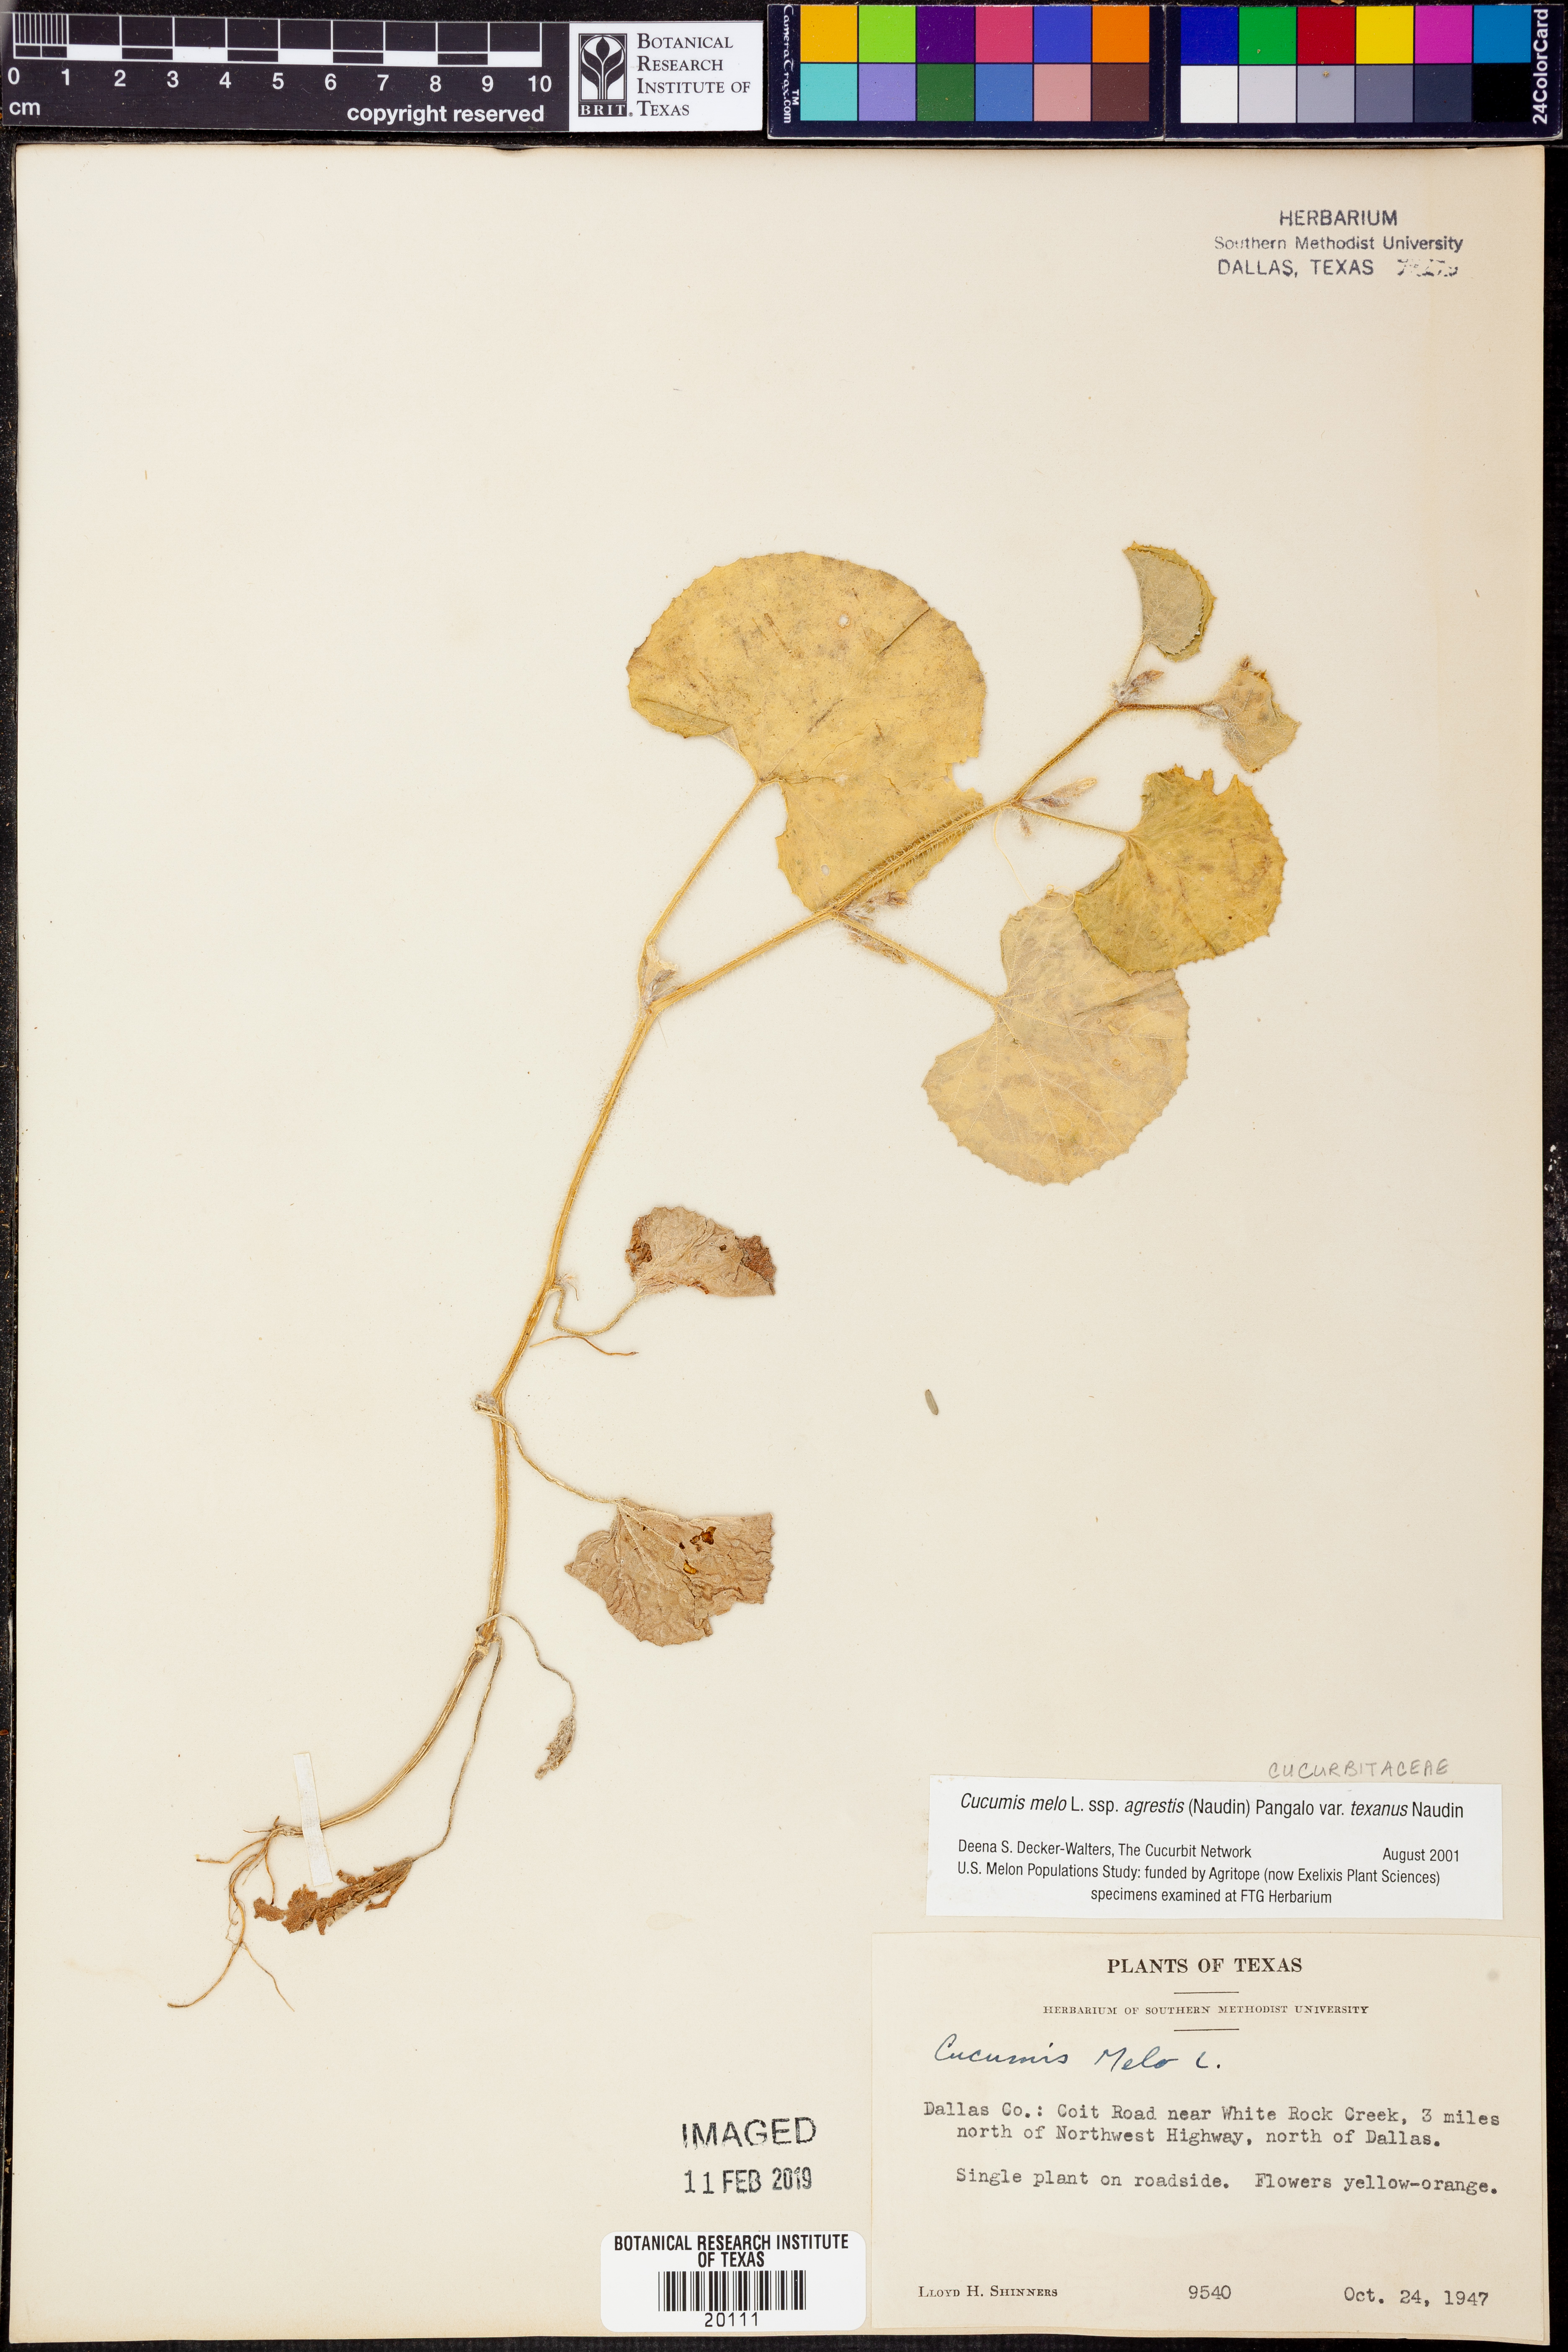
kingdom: Plantae
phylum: Tracheophyta
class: Magnoliopsida
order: Cucurbitales
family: Cucurbitaceae
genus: Cucumis
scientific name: Cucumis melo
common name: Melon
